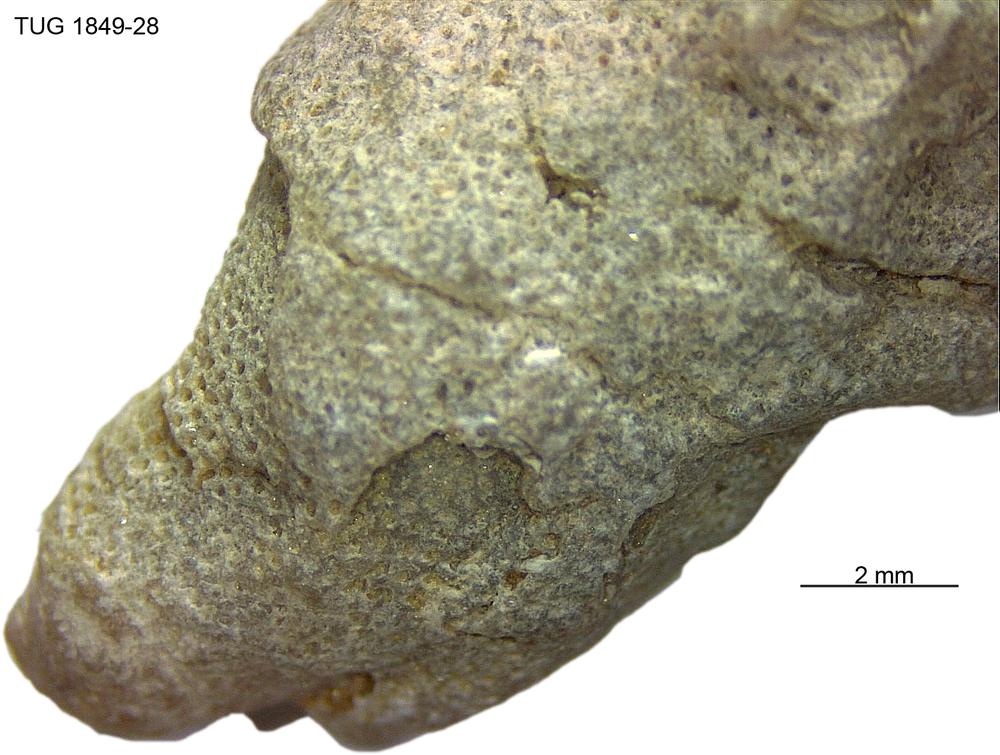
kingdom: Animalia
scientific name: Animalia
